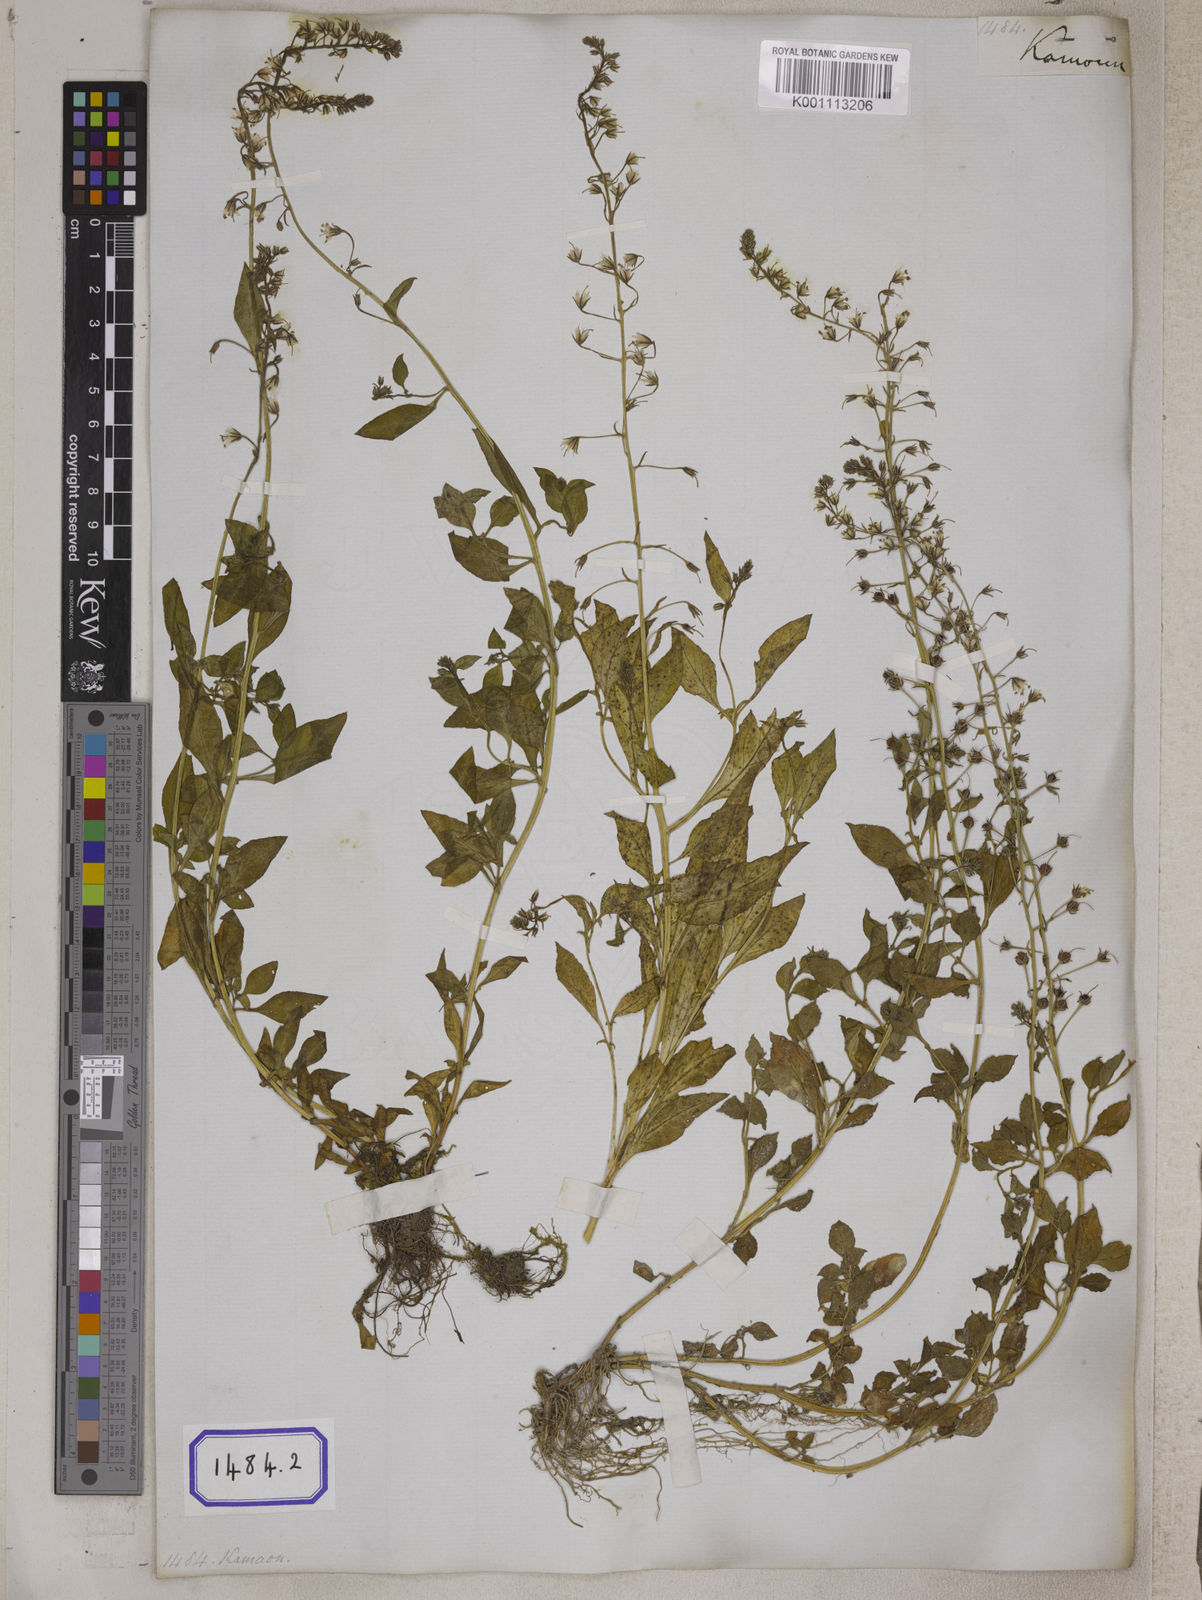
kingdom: Plantae
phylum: Tracheophyta
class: Magnoliopsida
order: Ericales
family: Primulaceae
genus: Lysimachia
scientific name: Lysimachia lobelioides
